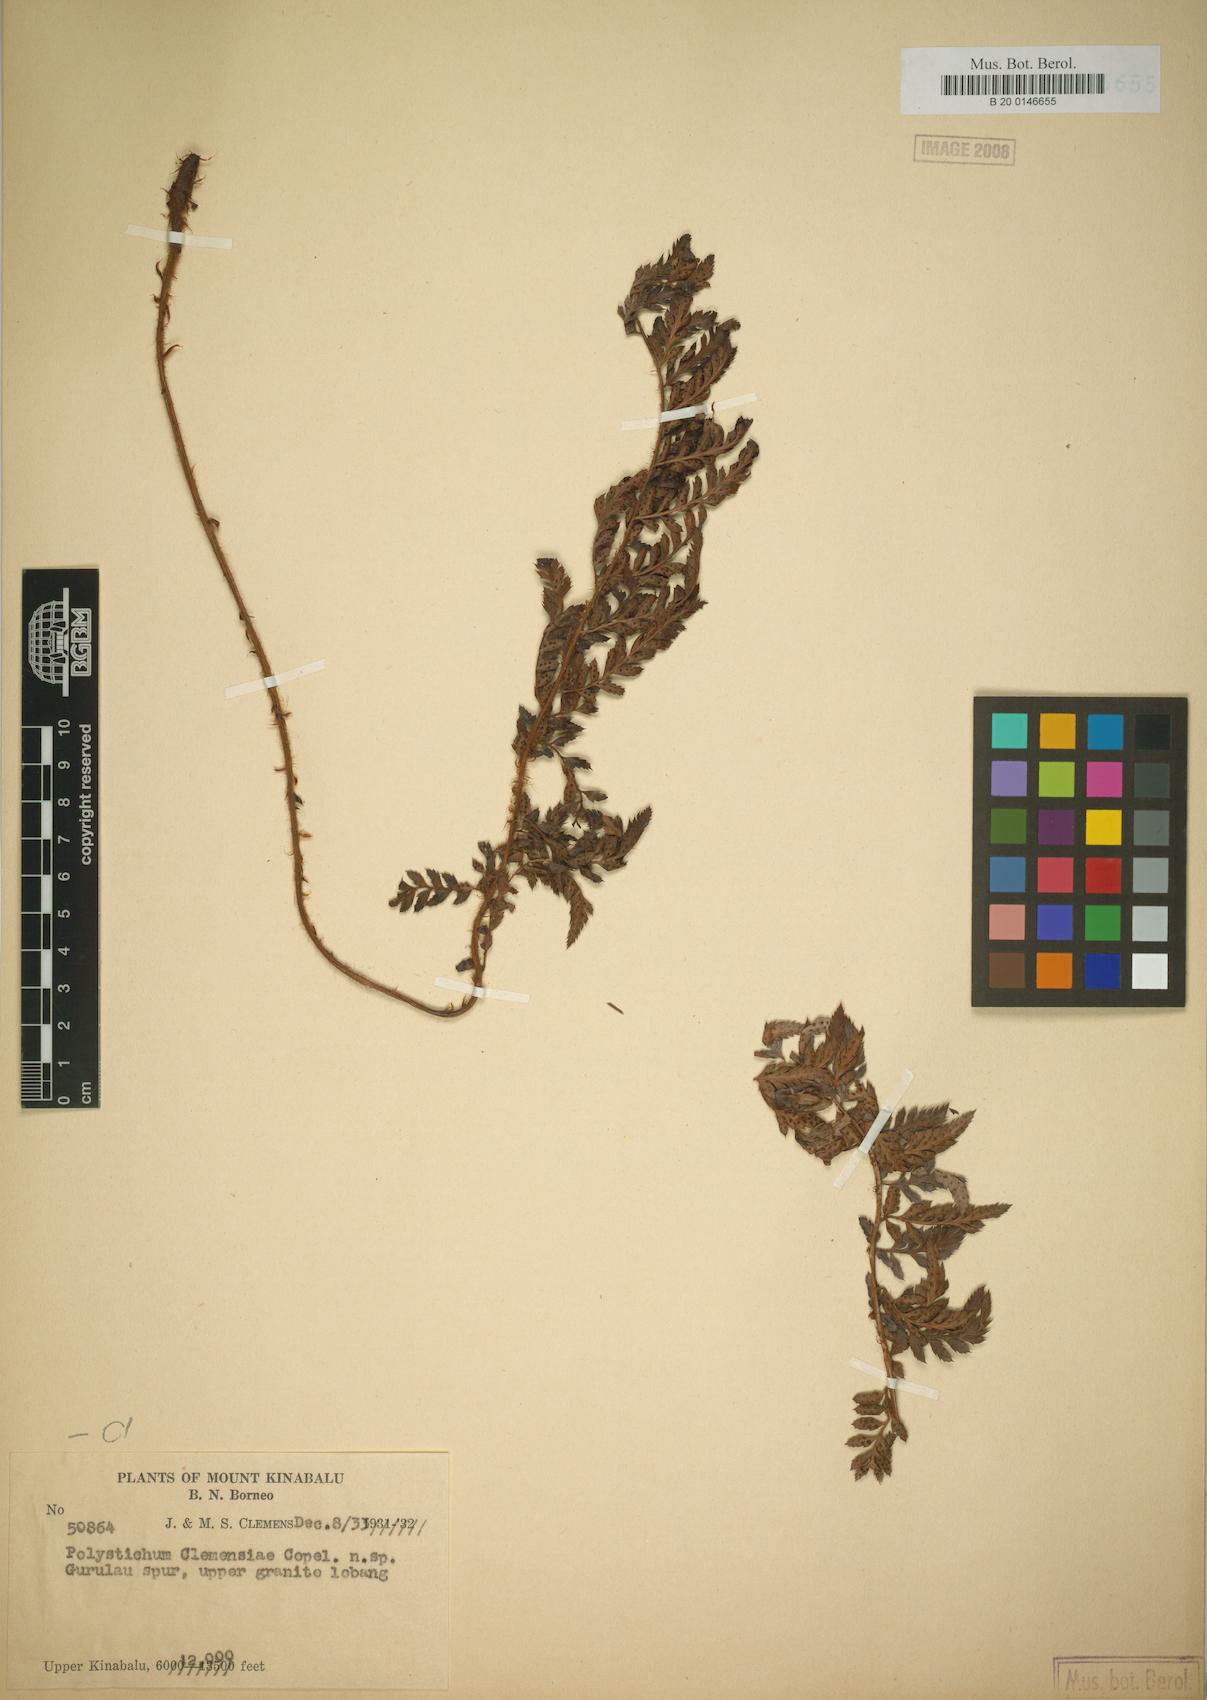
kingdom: Plantae
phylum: Tracheophyta
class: Polypodiopsida
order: Polypodiales
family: Dryopteridaceae
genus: Polystichum
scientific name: Polystichum kinabaluense
